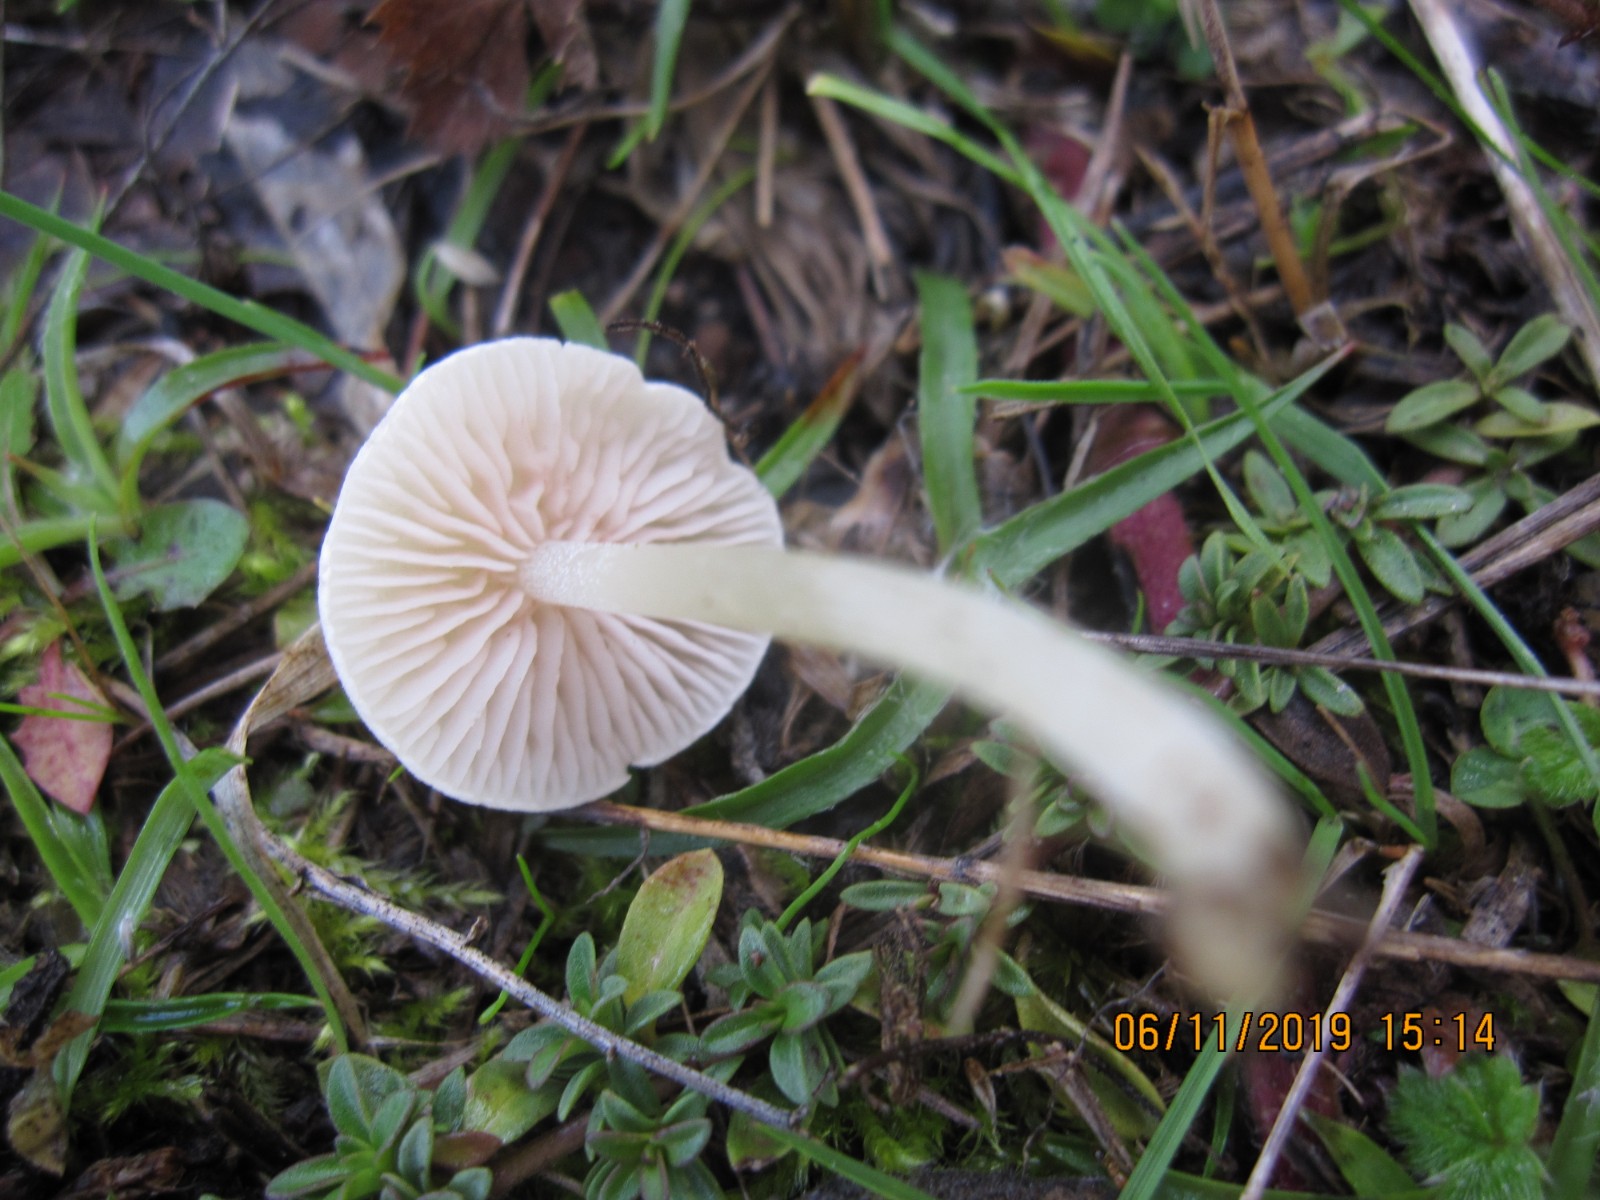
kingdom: Fungi
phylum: Basidiomycota
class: Agaricomycetes
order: Agaricales
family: Entolomataceae
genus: Entoloma
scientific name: Entoloma sericellum
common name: silkehvid rødblad
